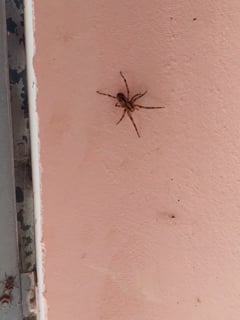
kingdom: Animalia
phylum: Arthropoda
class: Arachnida
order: Araneae
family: Zoropsidae
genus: Zoropsis
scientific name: Zoropsis spinimana
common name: Zoropsid spider
